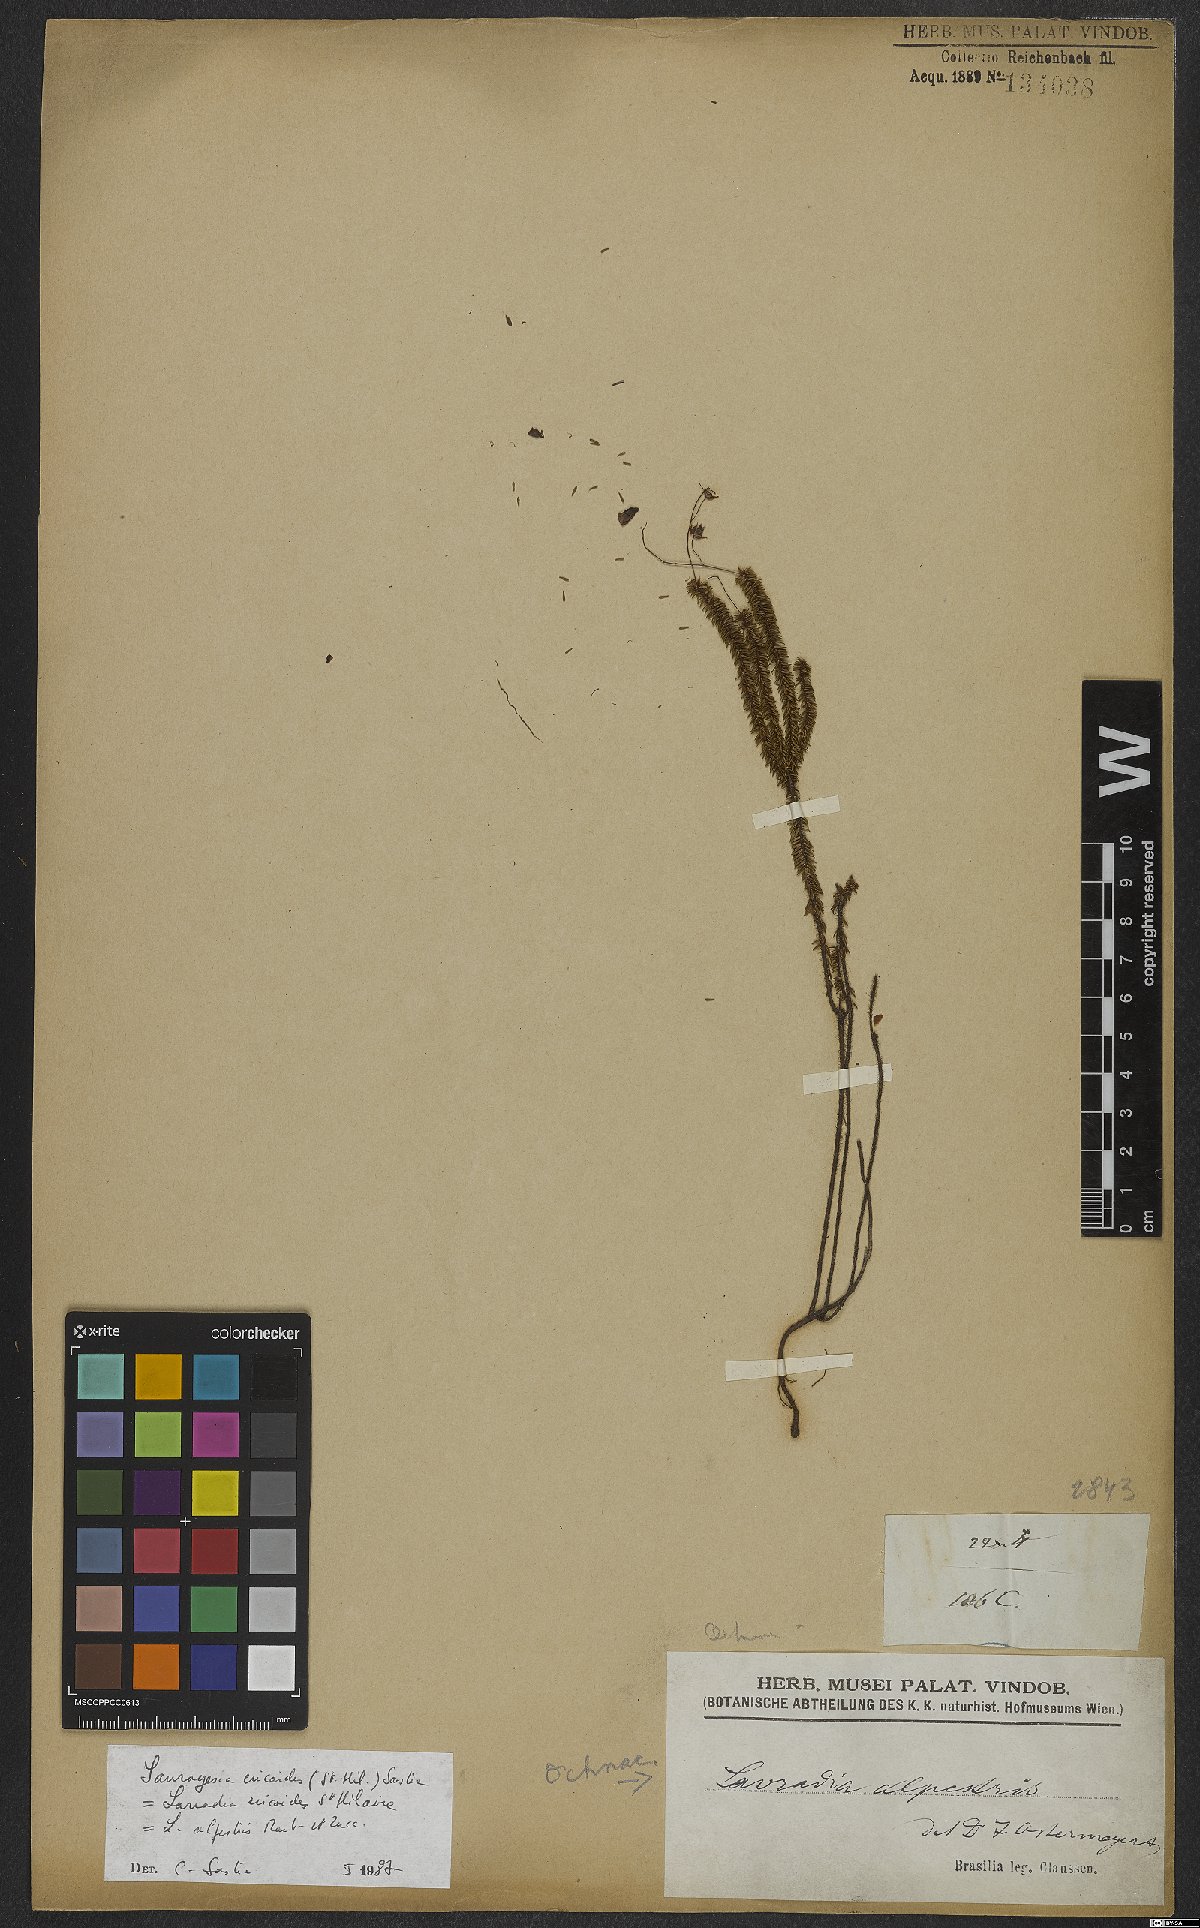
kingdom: Plantae
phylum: Tracheophyta
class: Magnoliopsida
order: Malpighiales
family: Ochnaceae
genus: Sauvagesia
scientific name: Sauvagesia ericoides
